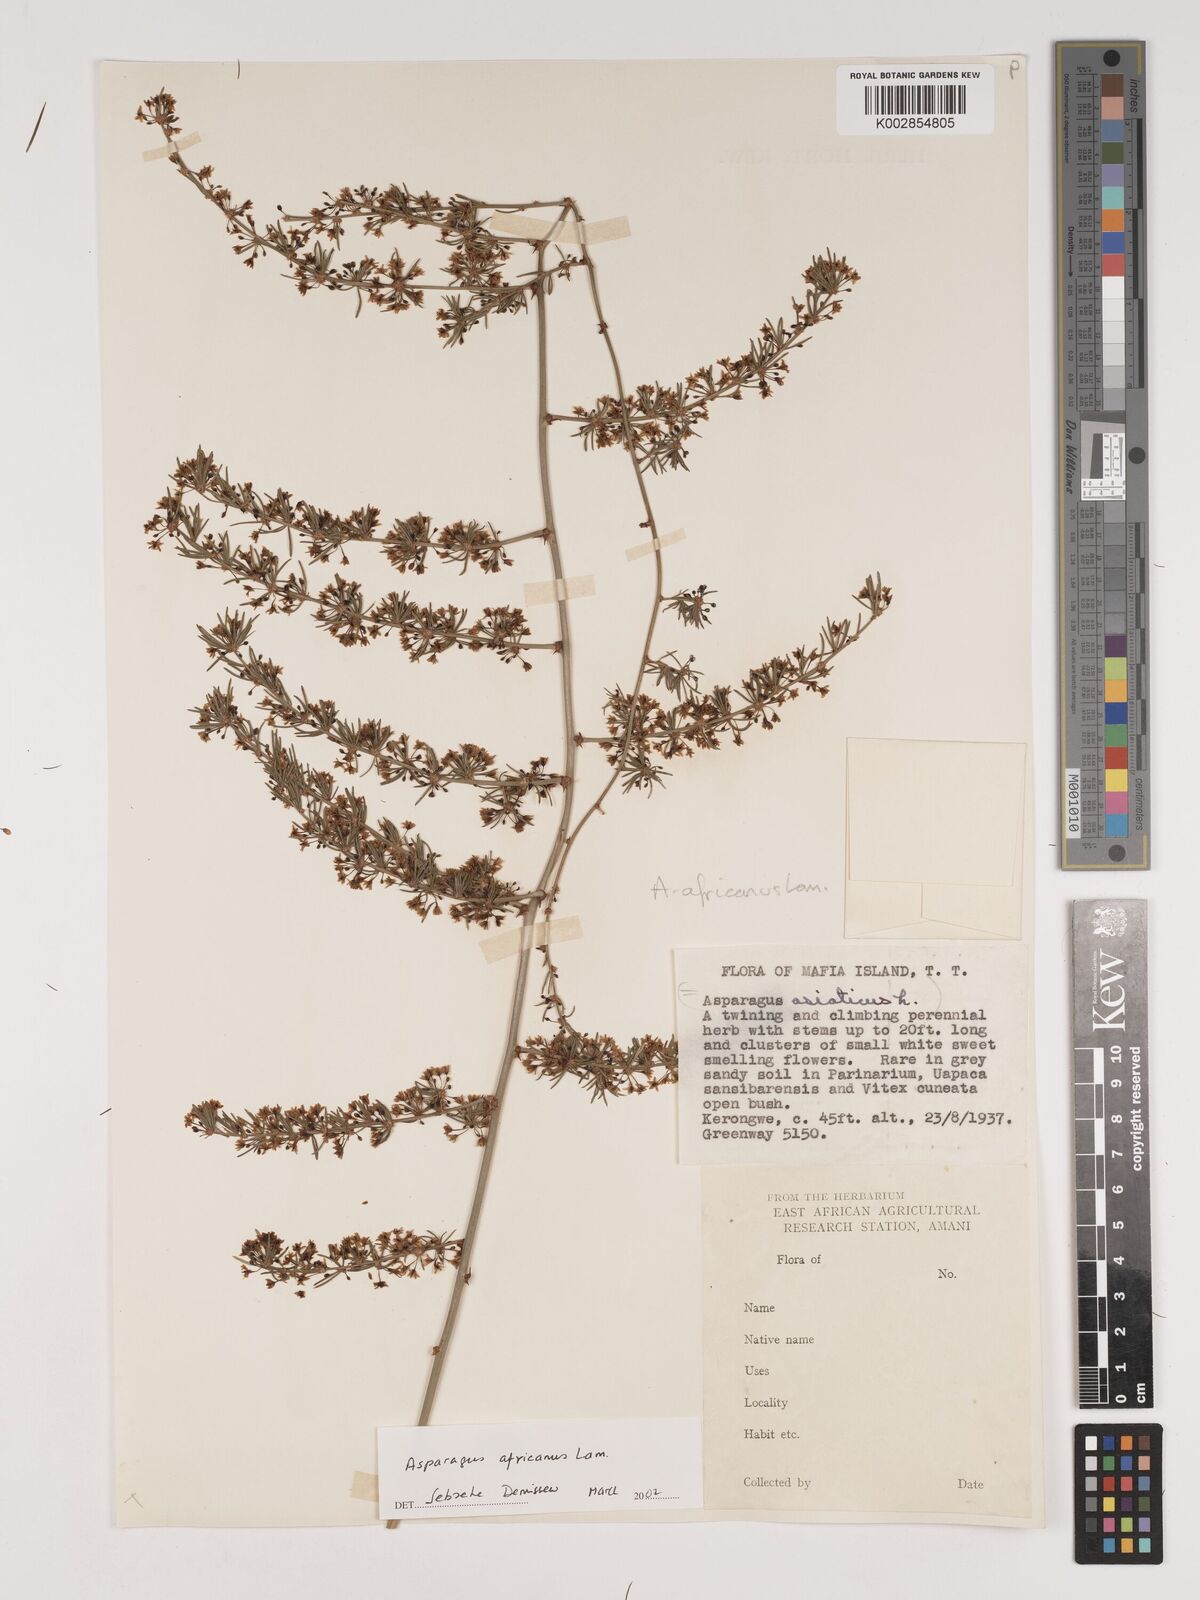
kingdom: Plantae
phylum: Tracheophyta
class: Liliopsida
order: Asparagales
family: Asparagaceae
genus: Asparagus
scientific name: Asparagus africanus
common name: Asparagus-fern
